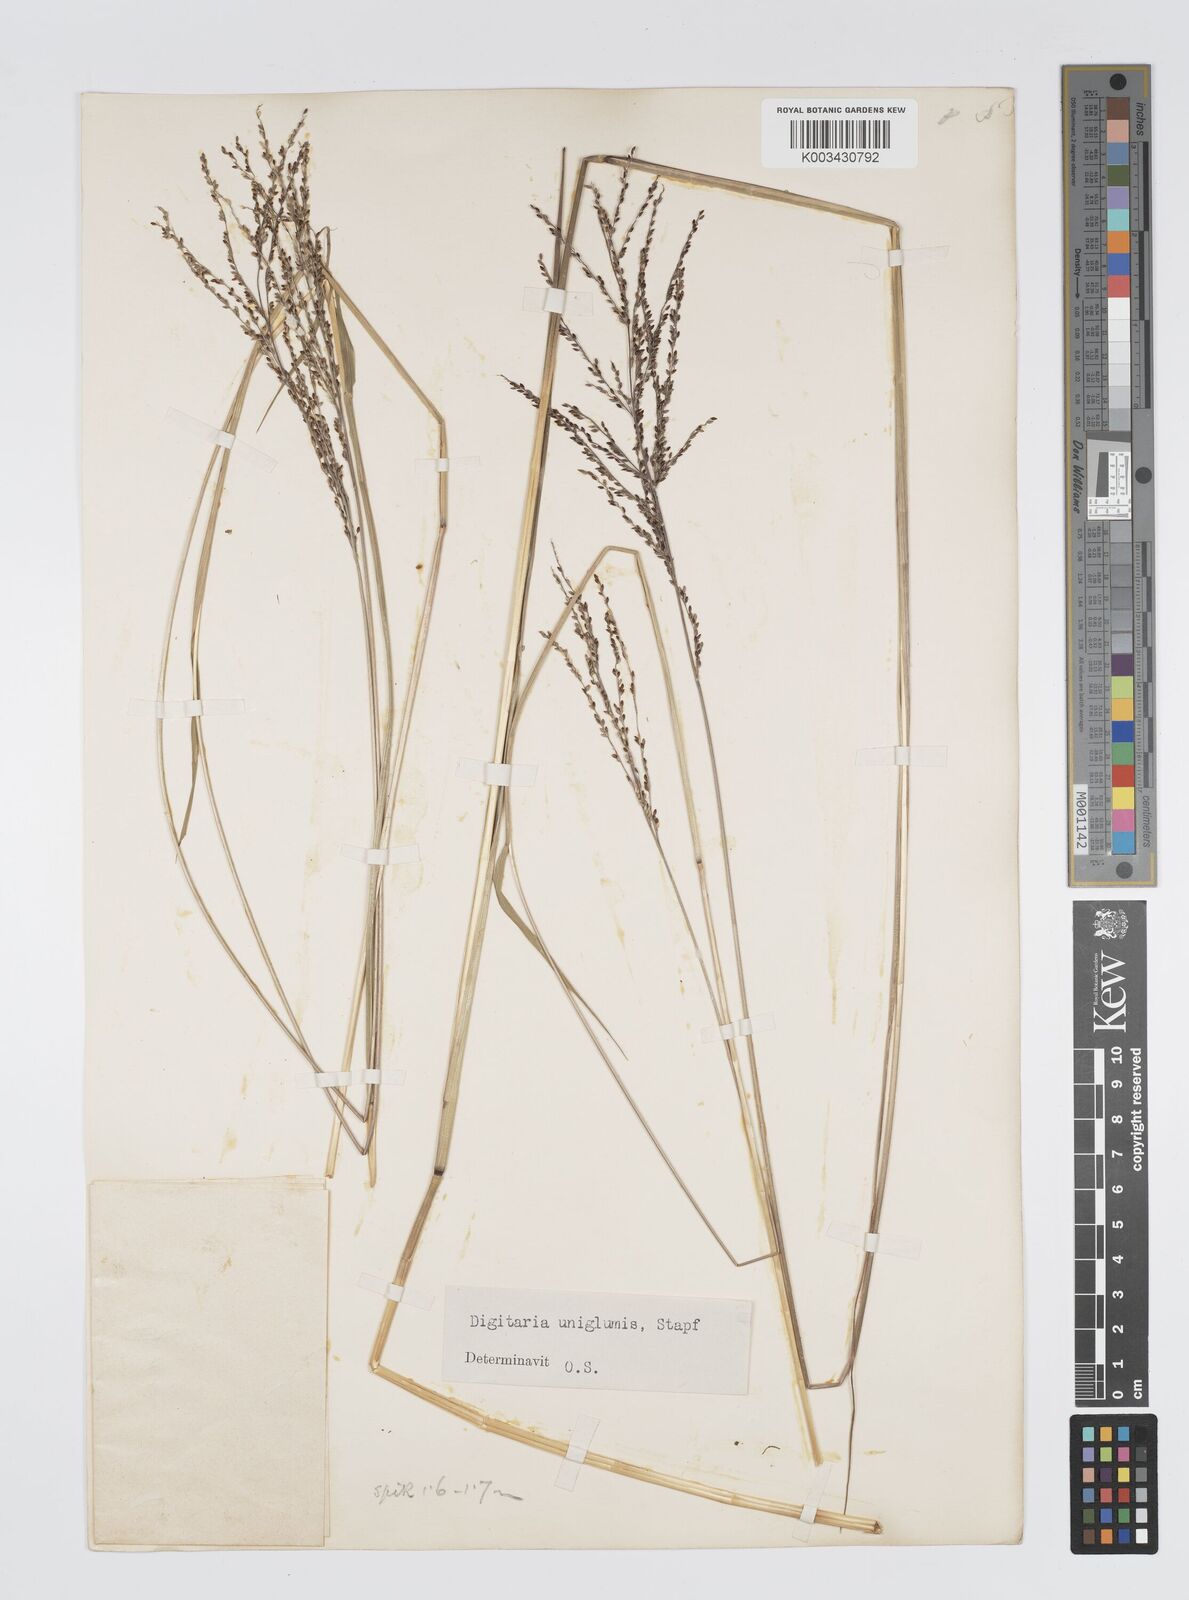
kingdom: Plantae
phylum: Tracheophyta
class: Liliopsida
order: Poales
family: Poaceae
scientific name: Poaceae
